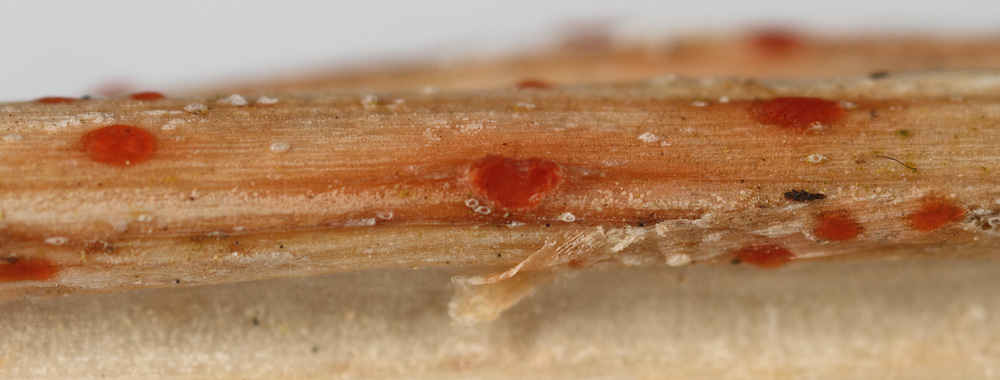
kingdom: Fungi
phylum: Ascomycota
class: Leotiomycetes
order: Helotiales
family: Calloriaceae
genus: Calloria
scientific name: Calloria urticae
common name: nælde-orangeskive
